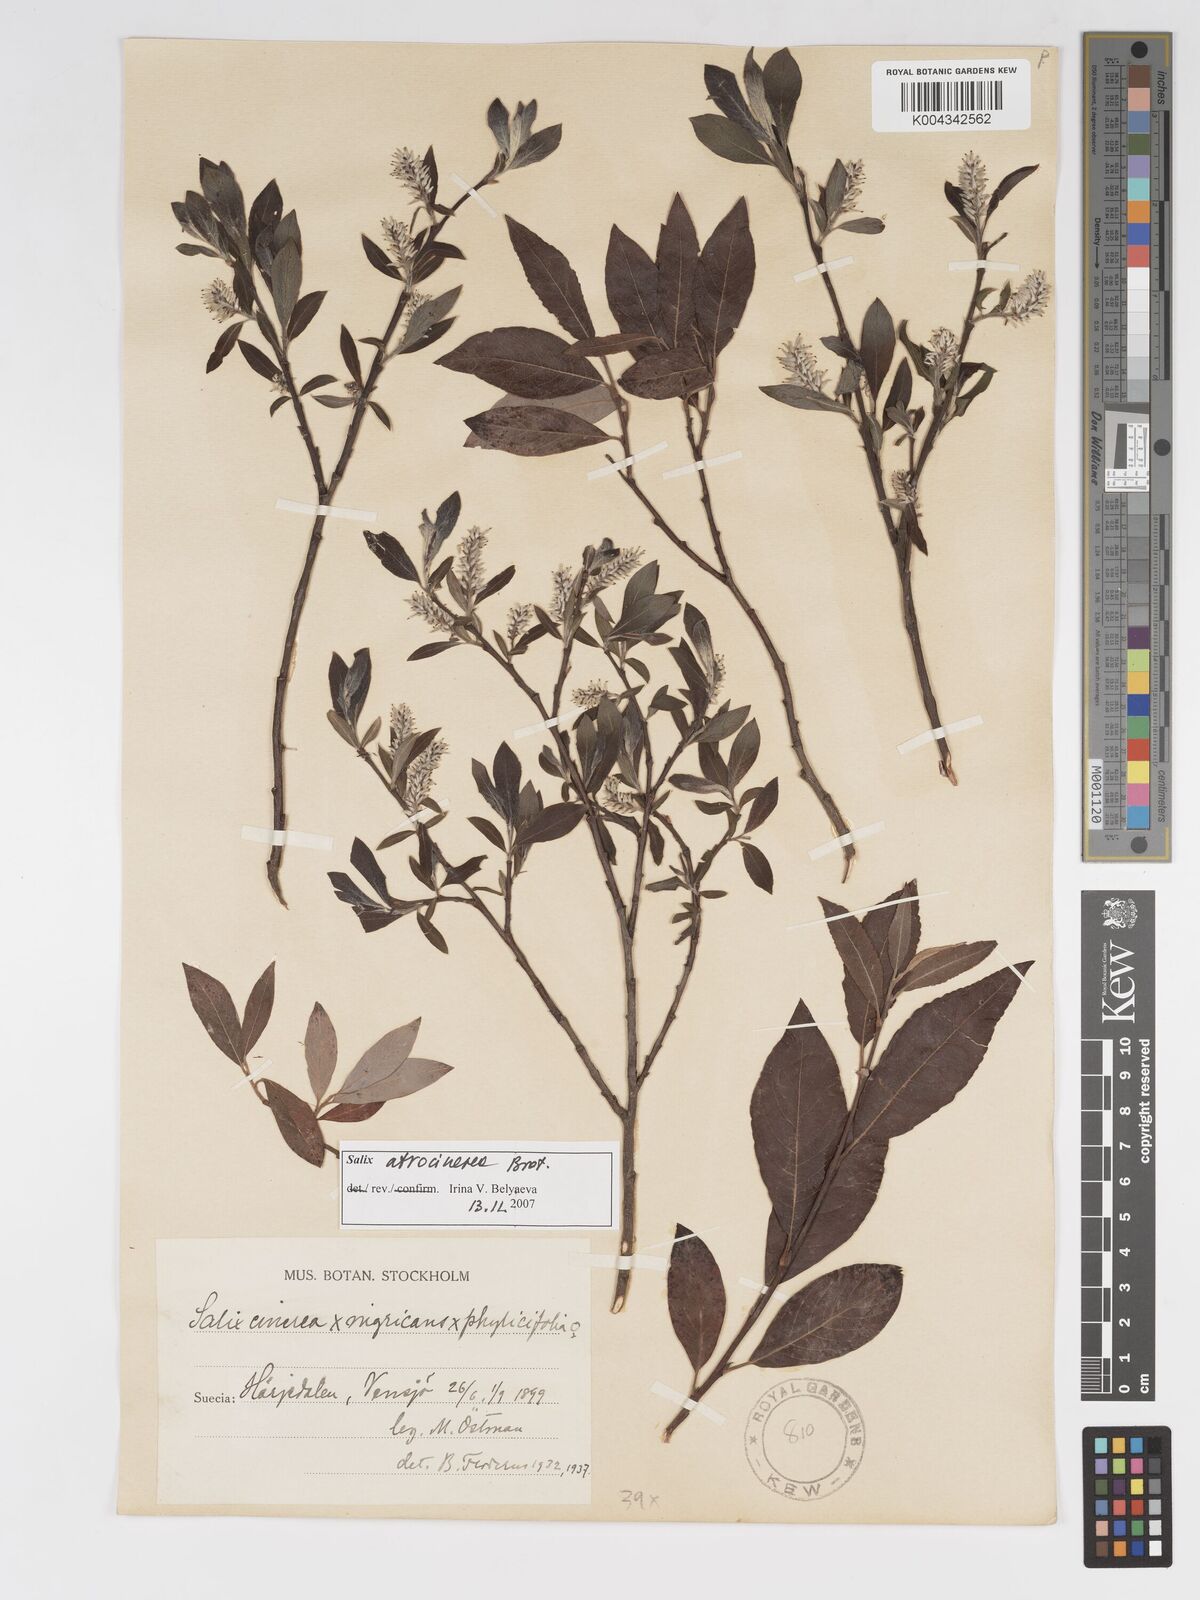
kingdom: Plantae
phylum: Tracheophyta
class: Magnoliopsida
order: Malpighiales
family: Salicaceae
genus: Salix
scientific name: Salix cinerea
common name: Common sallow
